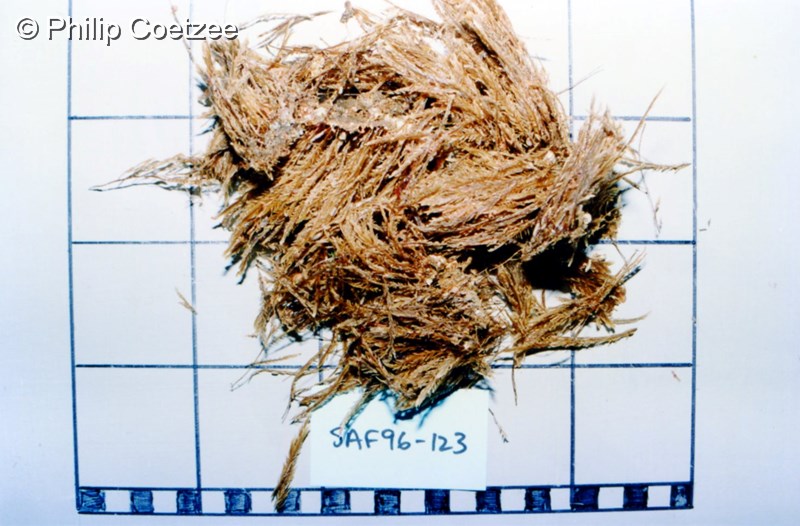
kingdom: Animalia
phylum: Cnidaria
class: Hydrozoa
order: Leptothecata
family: Plumulariidae
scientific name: Plumulariidae
